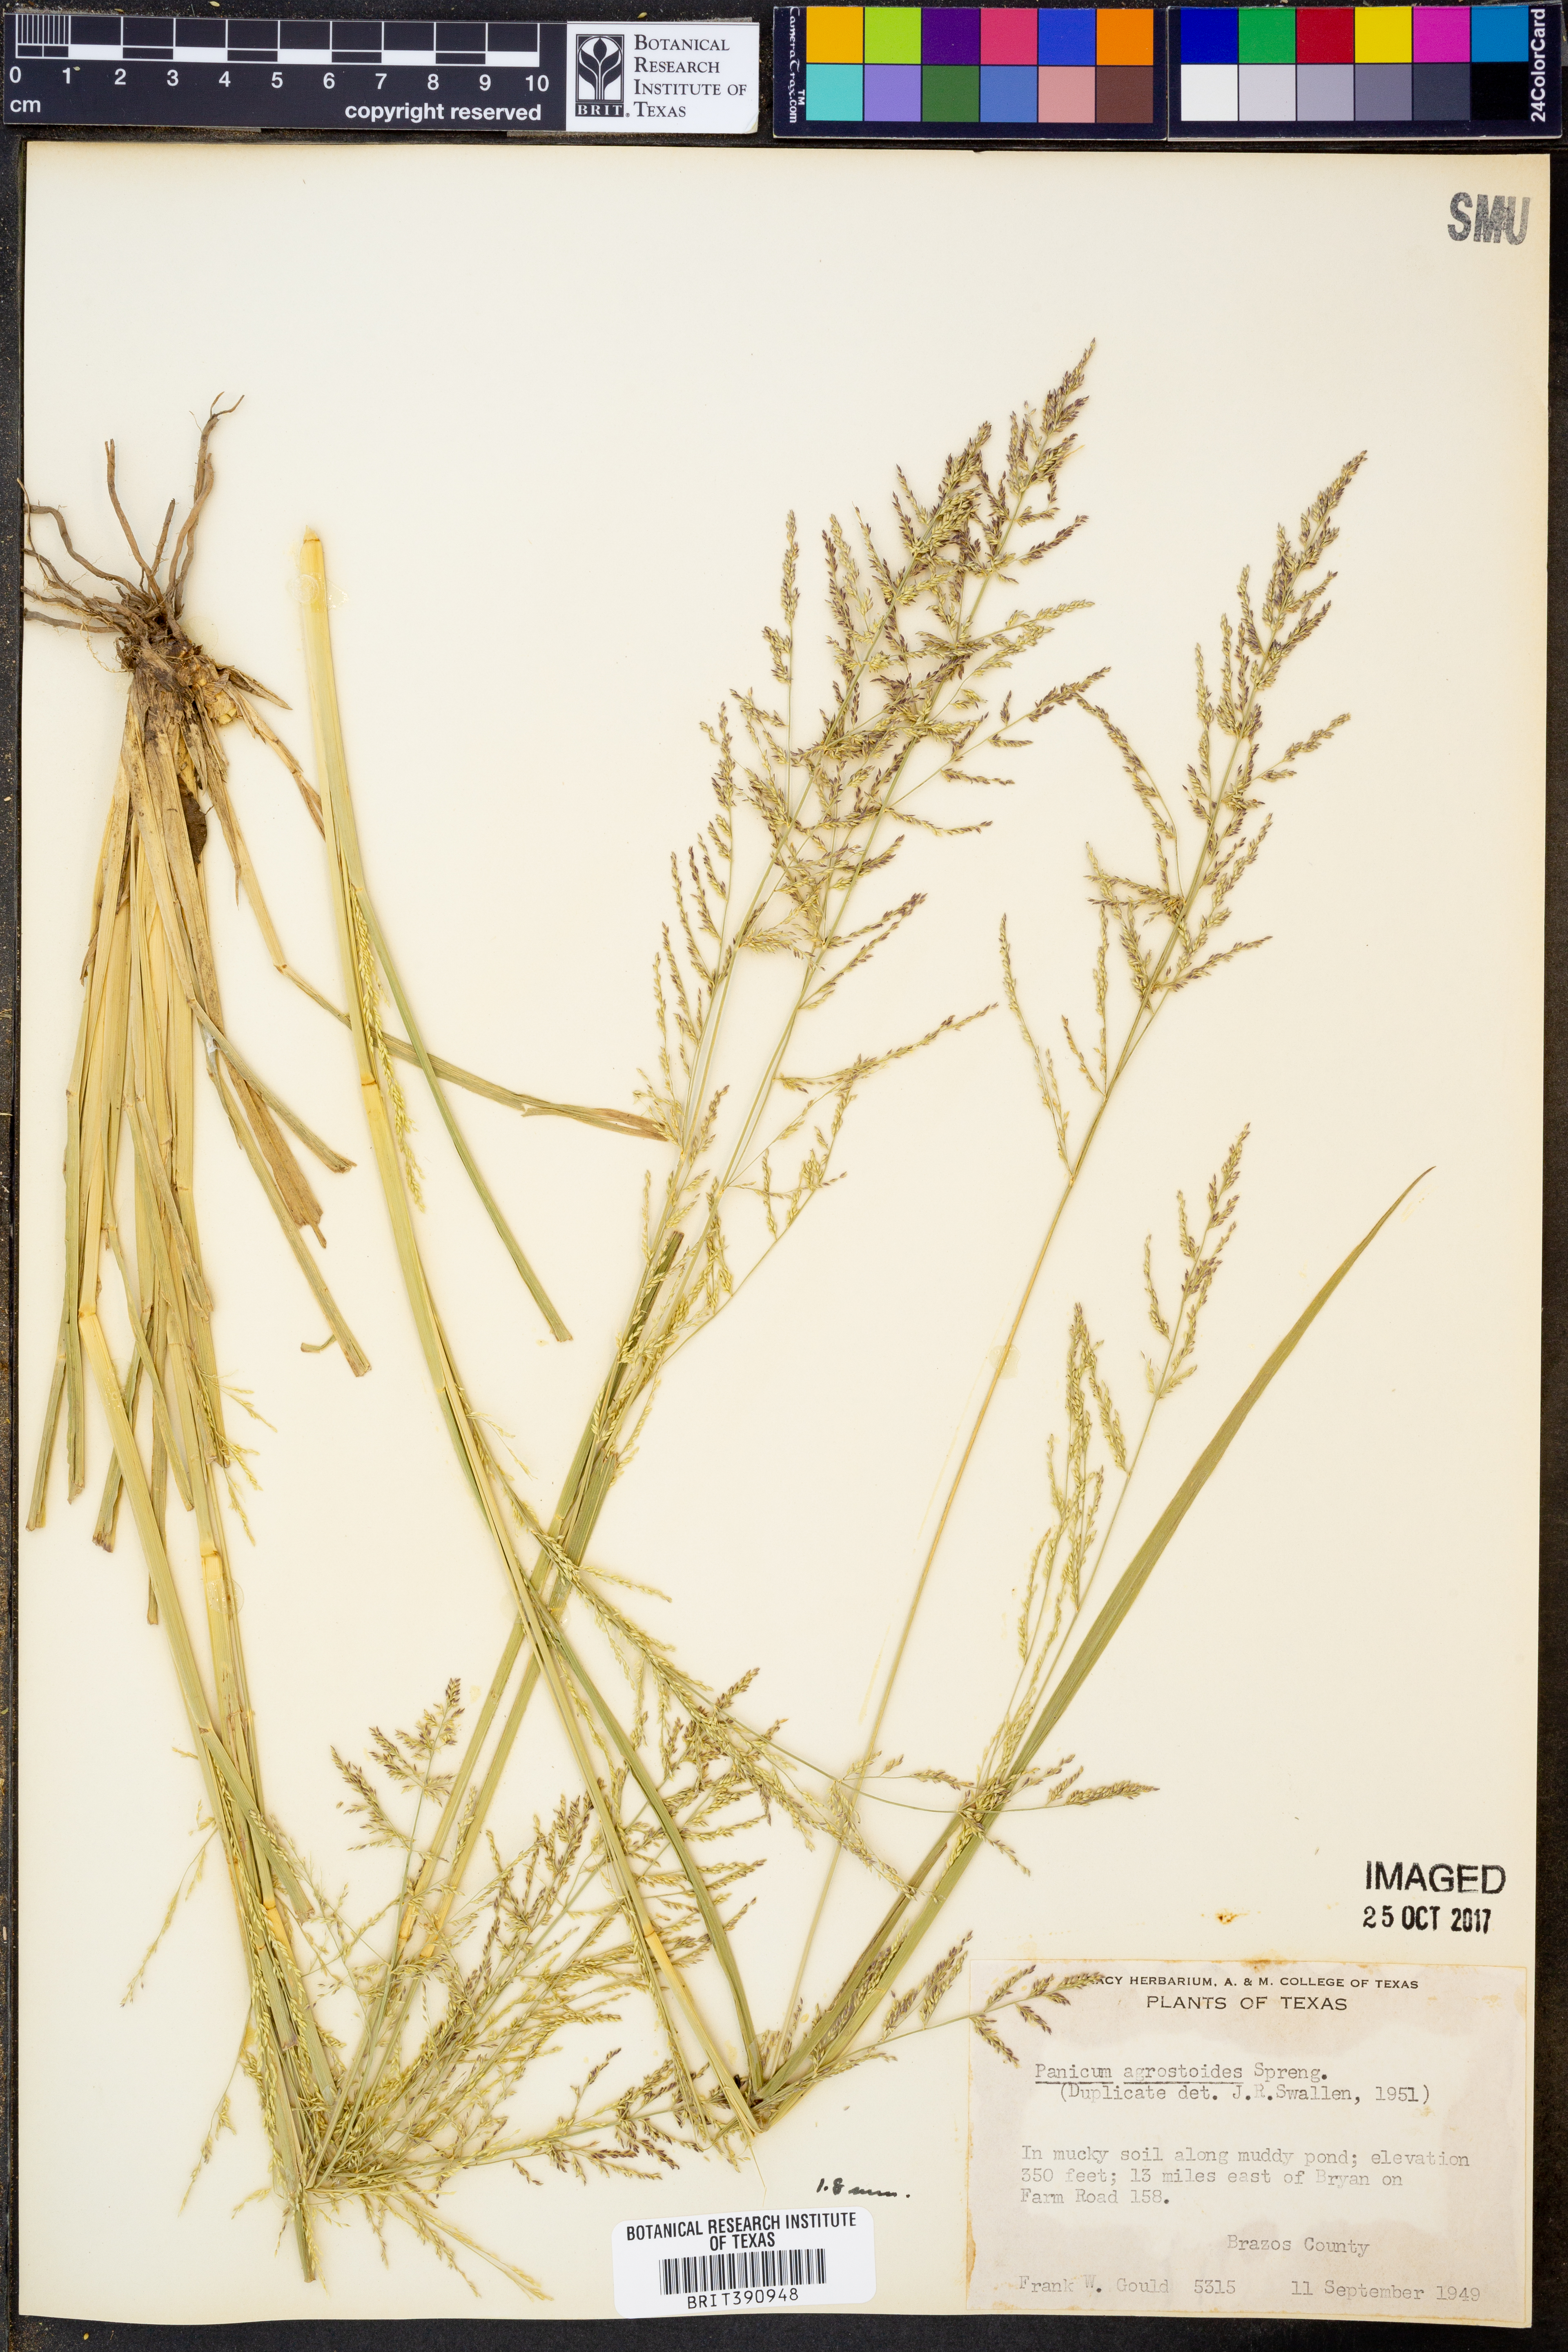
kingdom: Plantae
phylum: Tracheophyta
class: Liliopsida
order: Poales
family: Poaceae
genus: Steinchisma
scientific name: Steinchisma laxum
